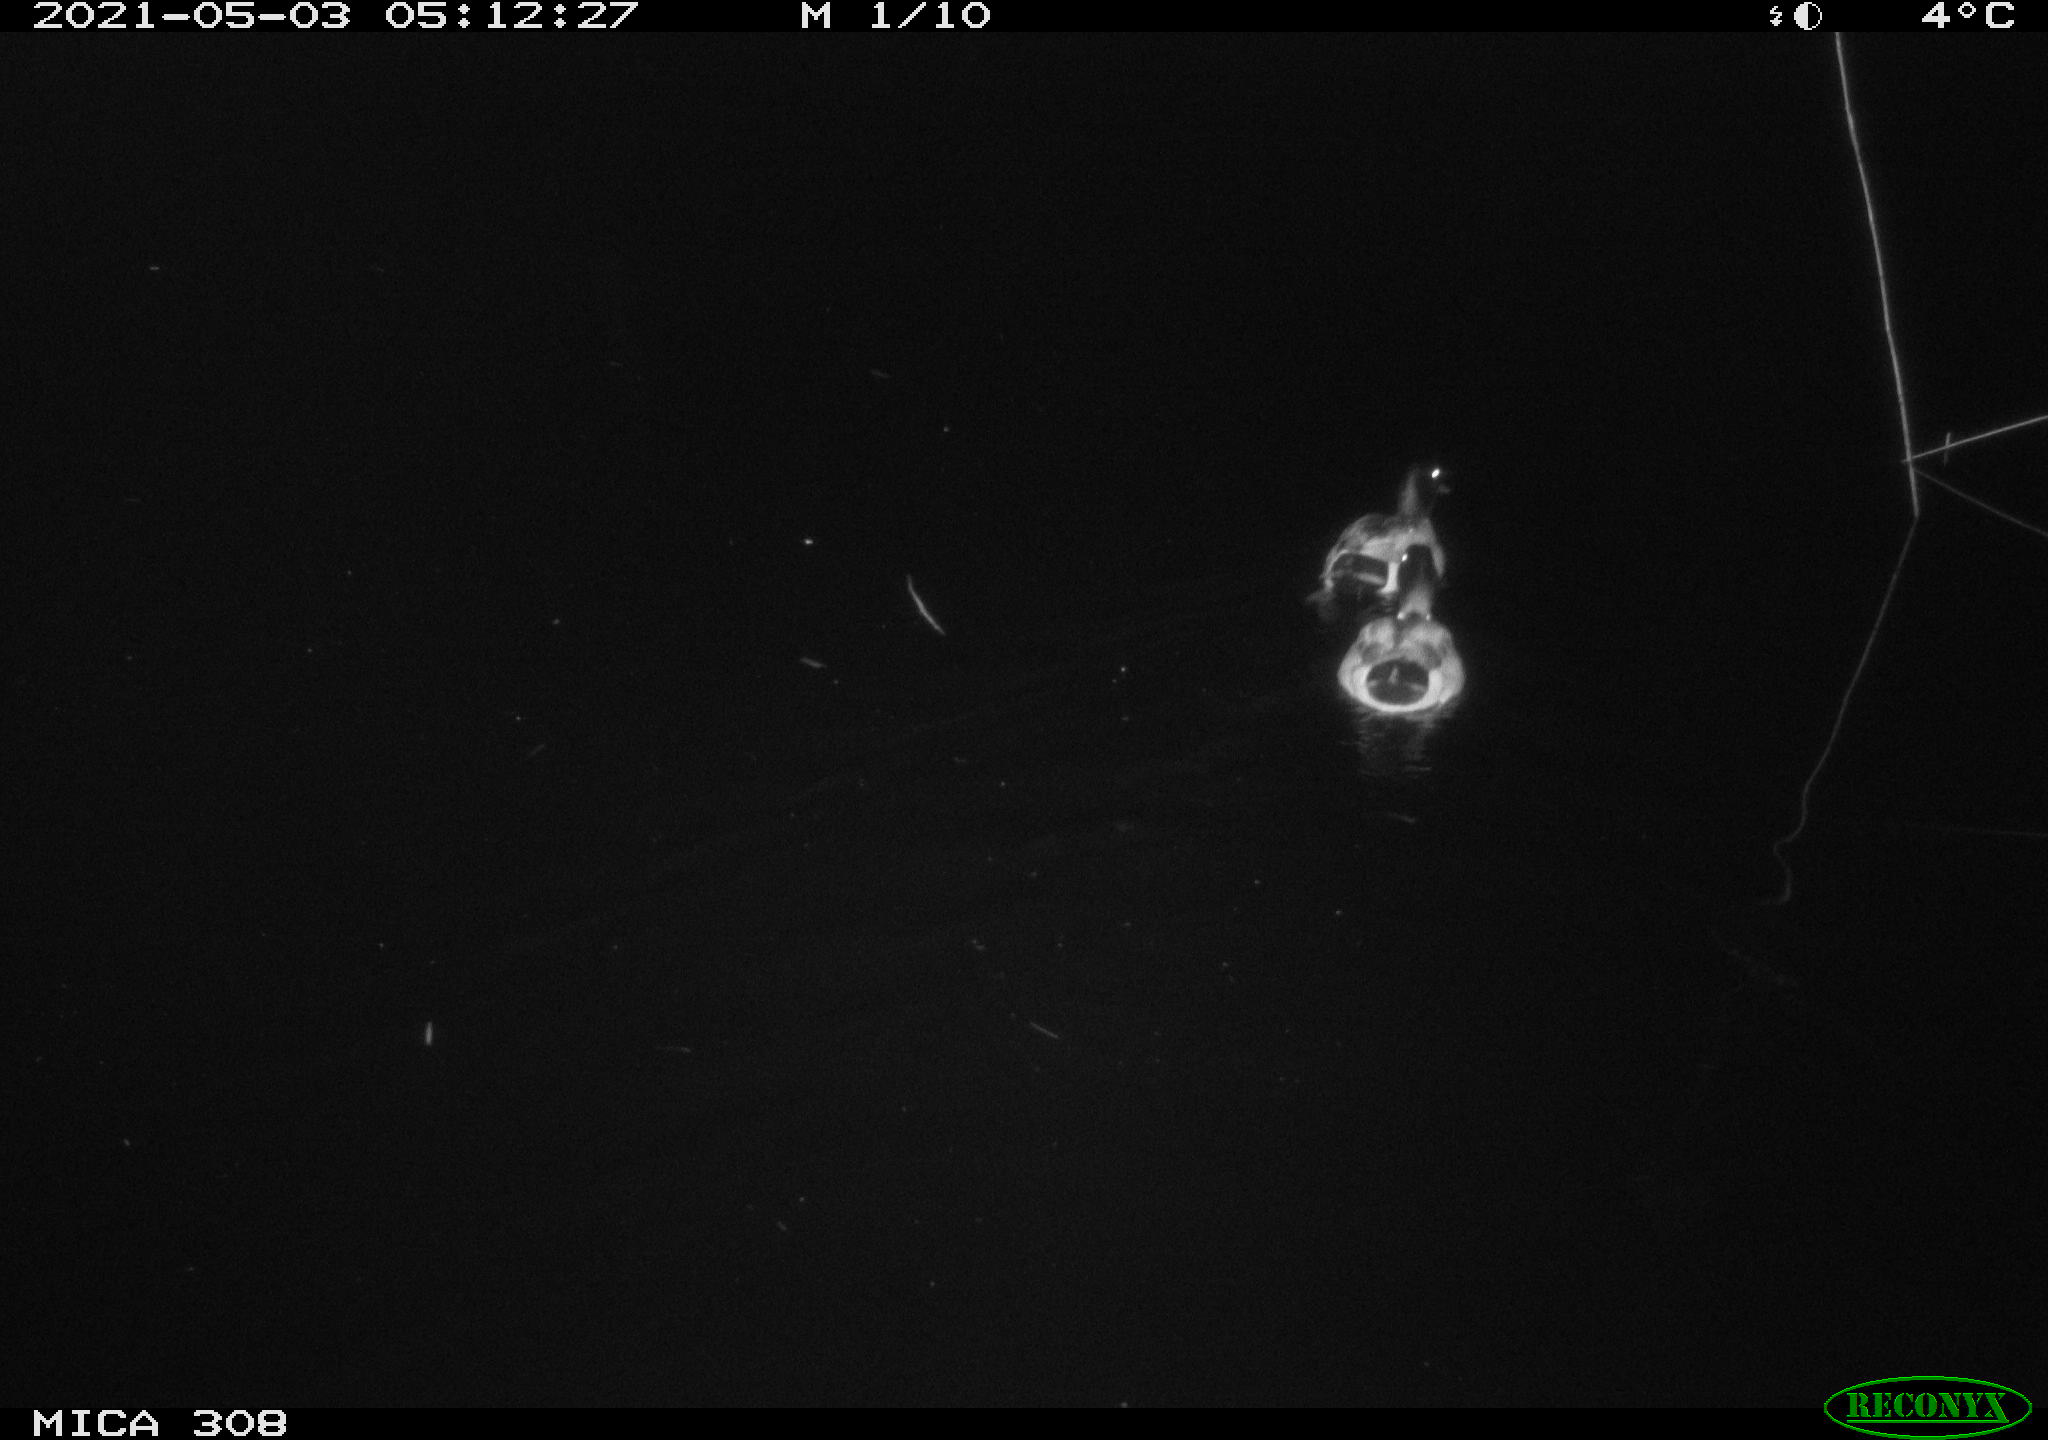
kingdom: Animalia
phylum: Chordata
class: Aves
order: Anseriformes
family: Anatidae
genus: Anas
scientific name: Anas platyrhynchos
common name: Mallard
